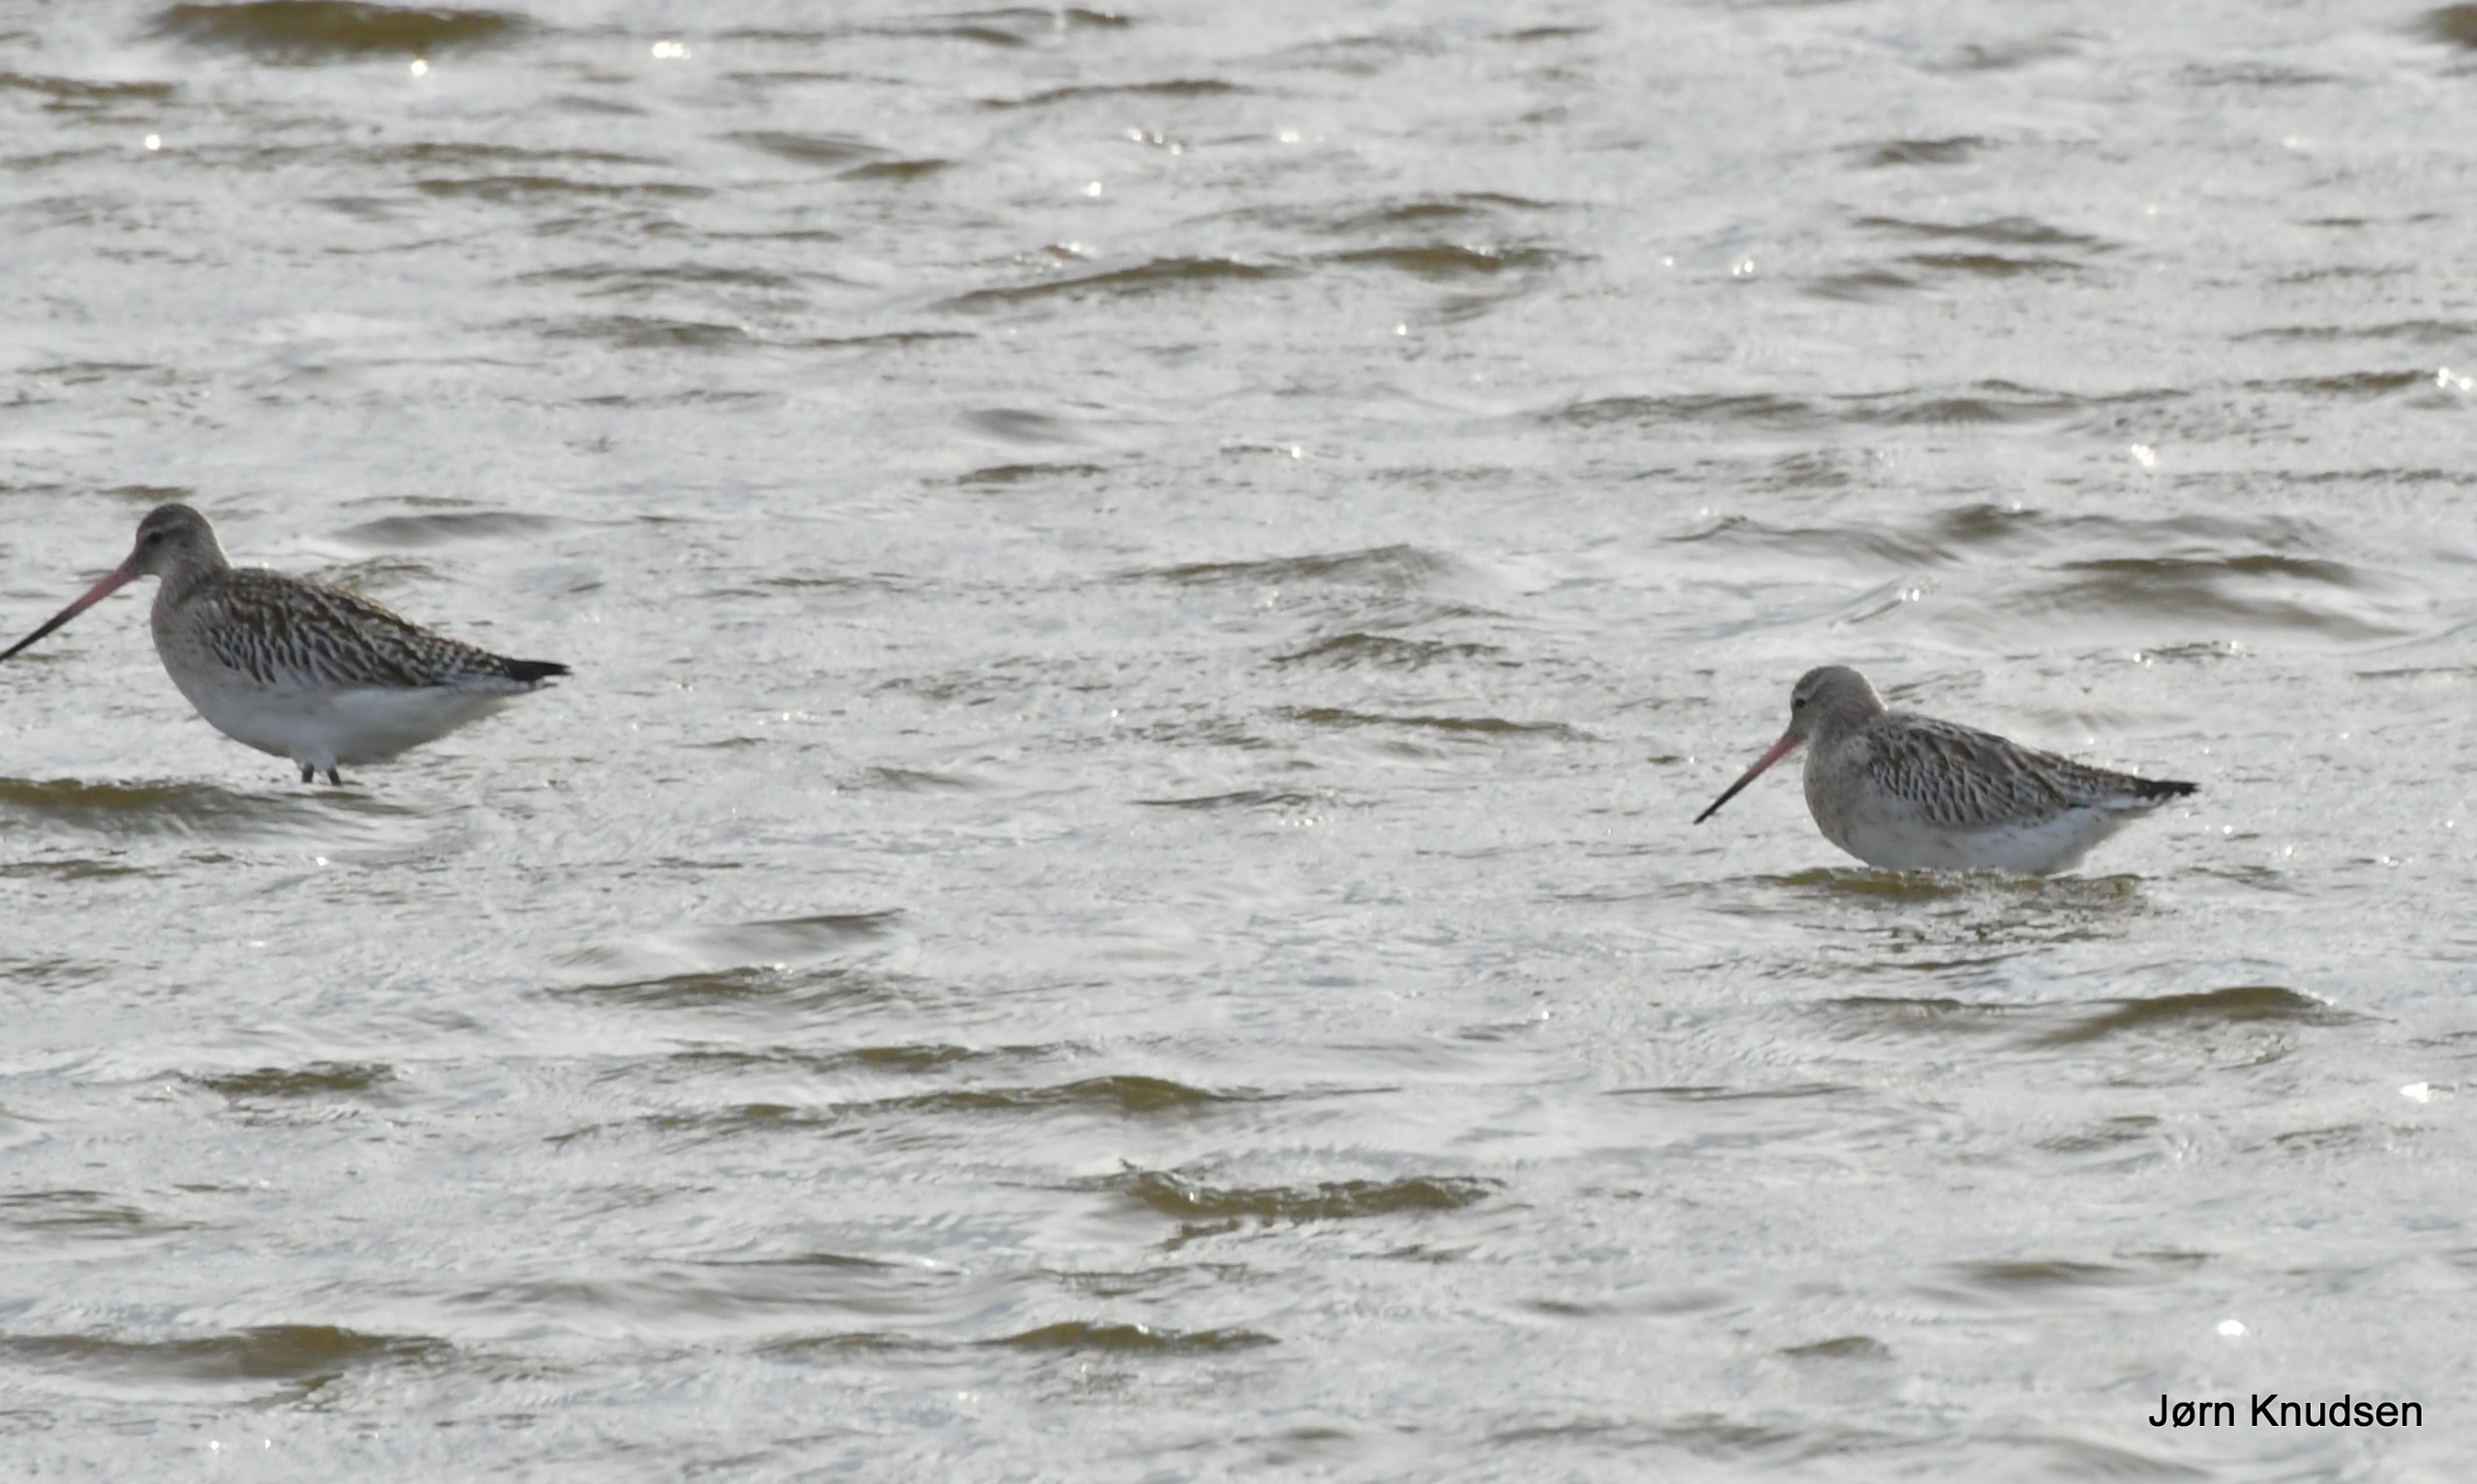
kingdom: Animalia
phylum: Chordata
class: Aves
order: Charadriiformes
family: Scolopacidae
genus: Limosa
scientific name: Limosa lapponica
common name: Lille kobbersneppe
